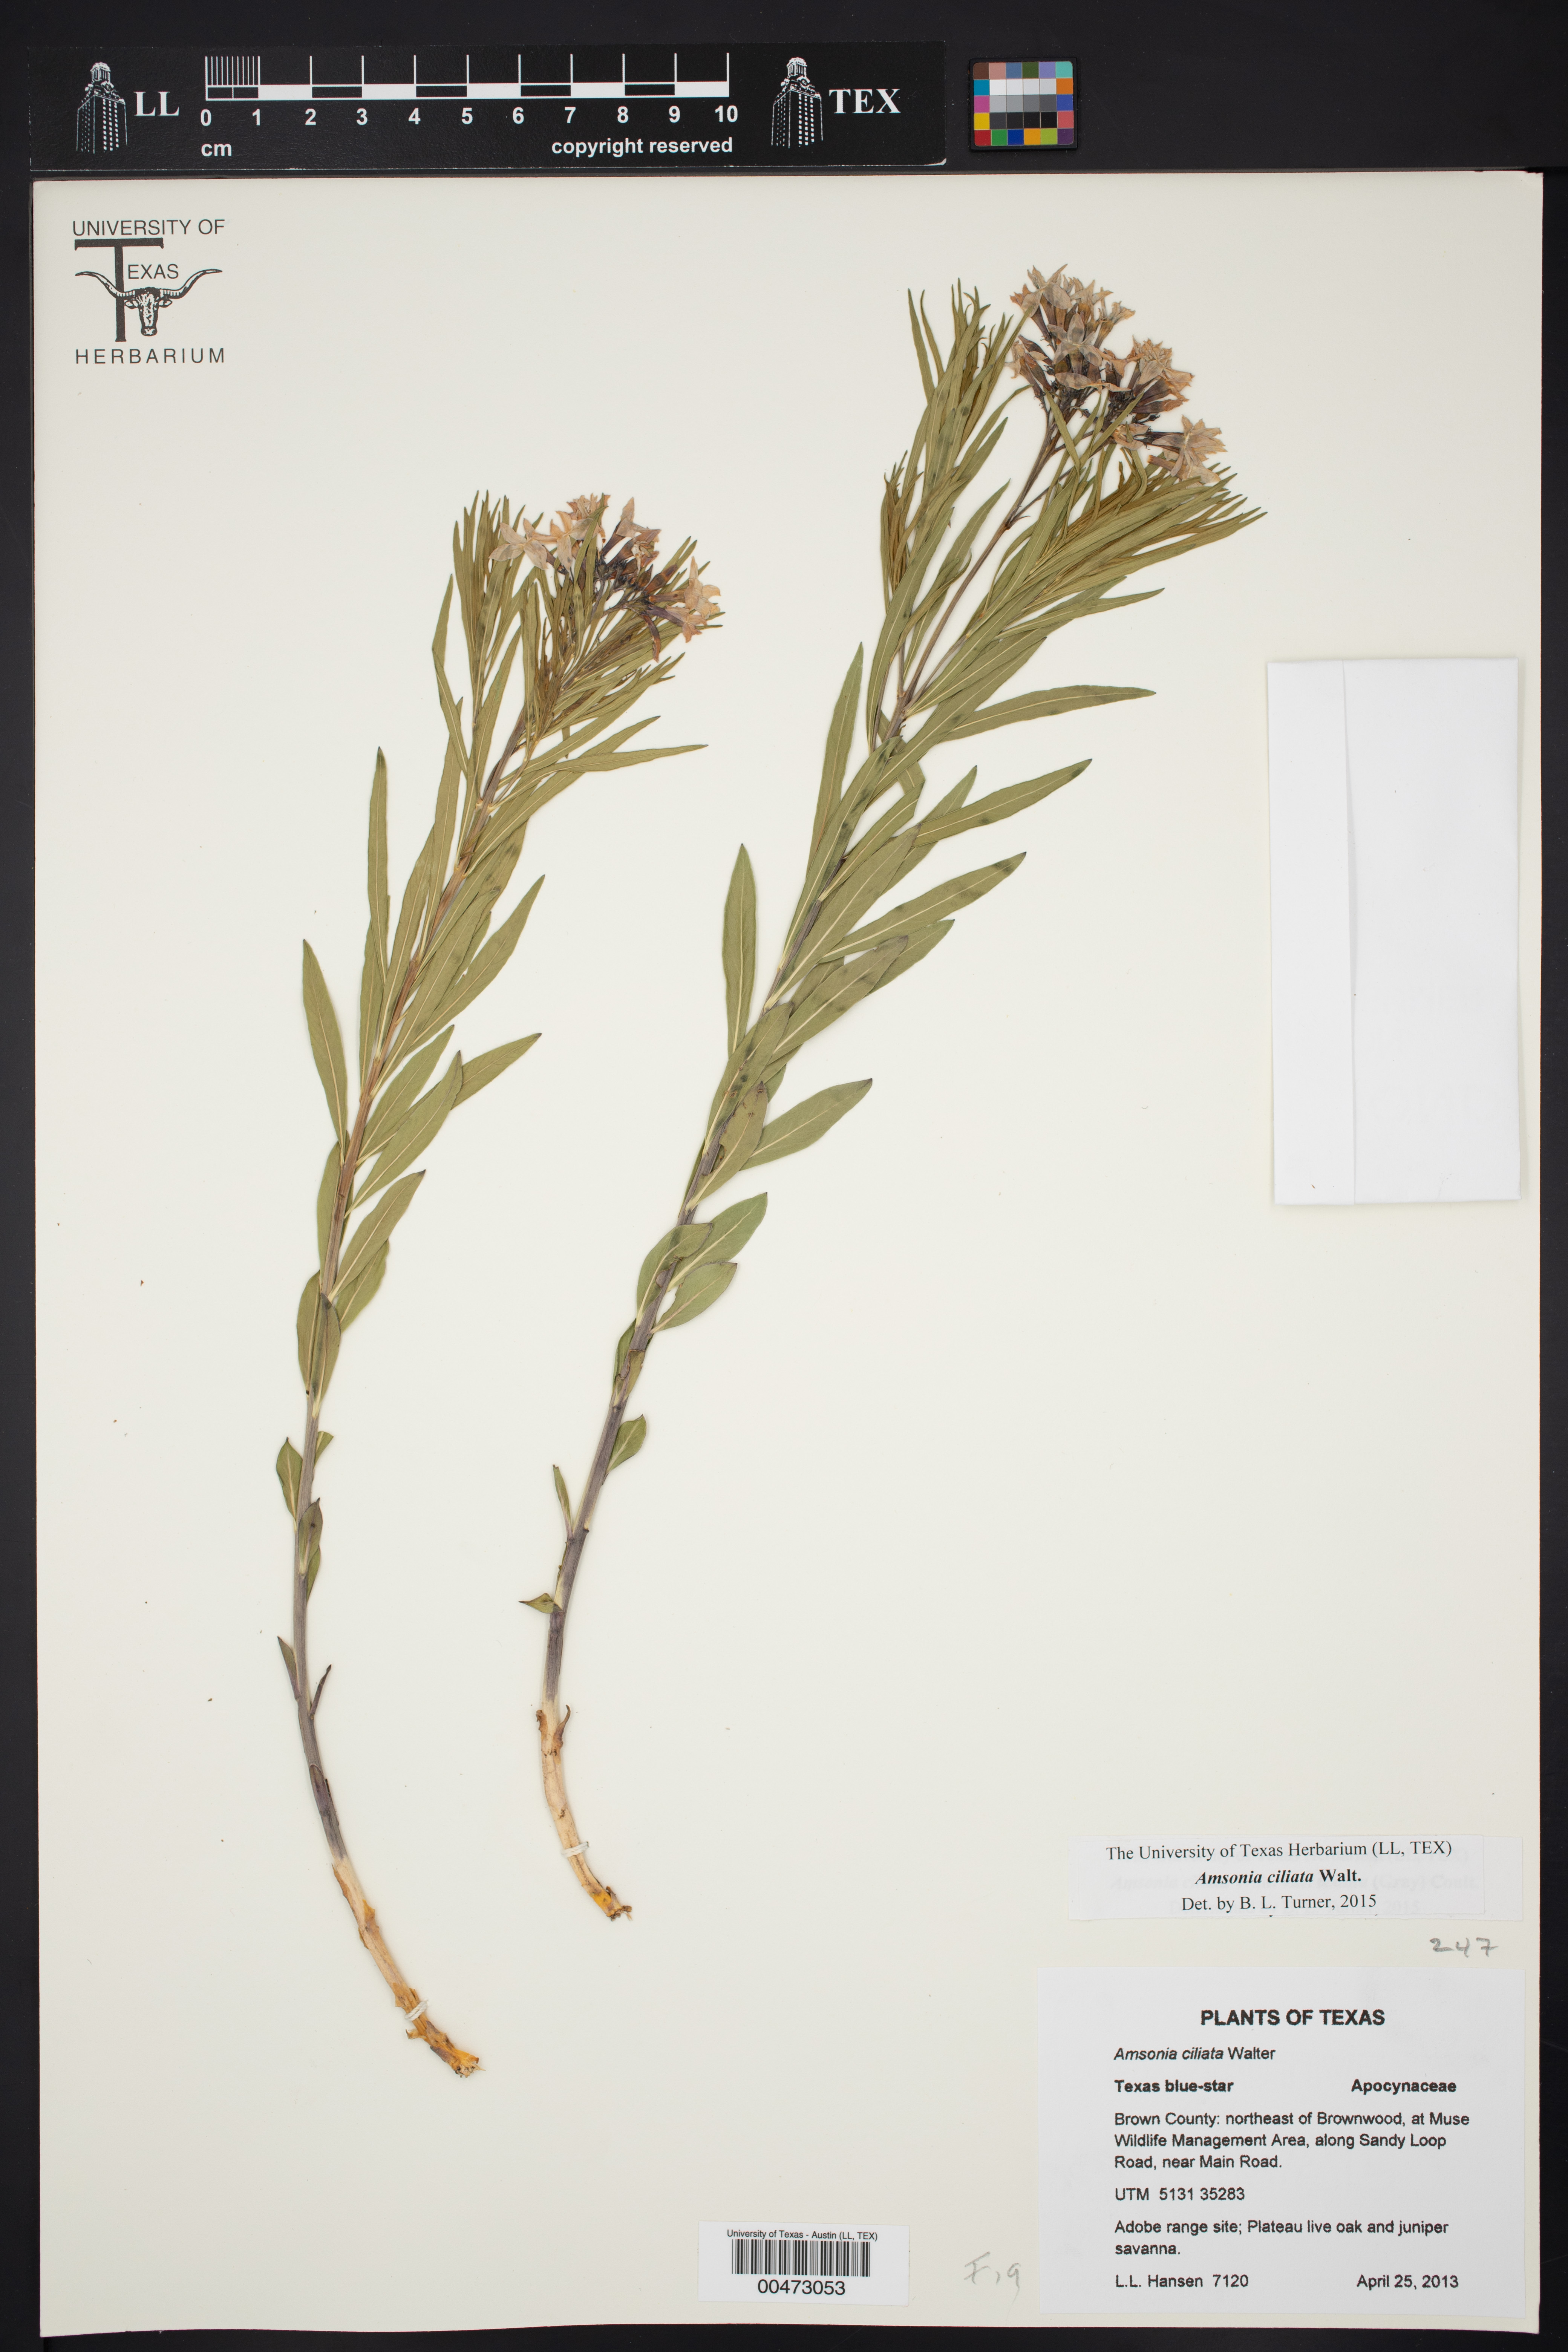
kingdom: Plantae
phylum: Tracheophyta
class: Magnoliopsida
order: Gentianales
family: Apocynaceae
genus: Amsonia
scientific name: Amsonia ciliata
